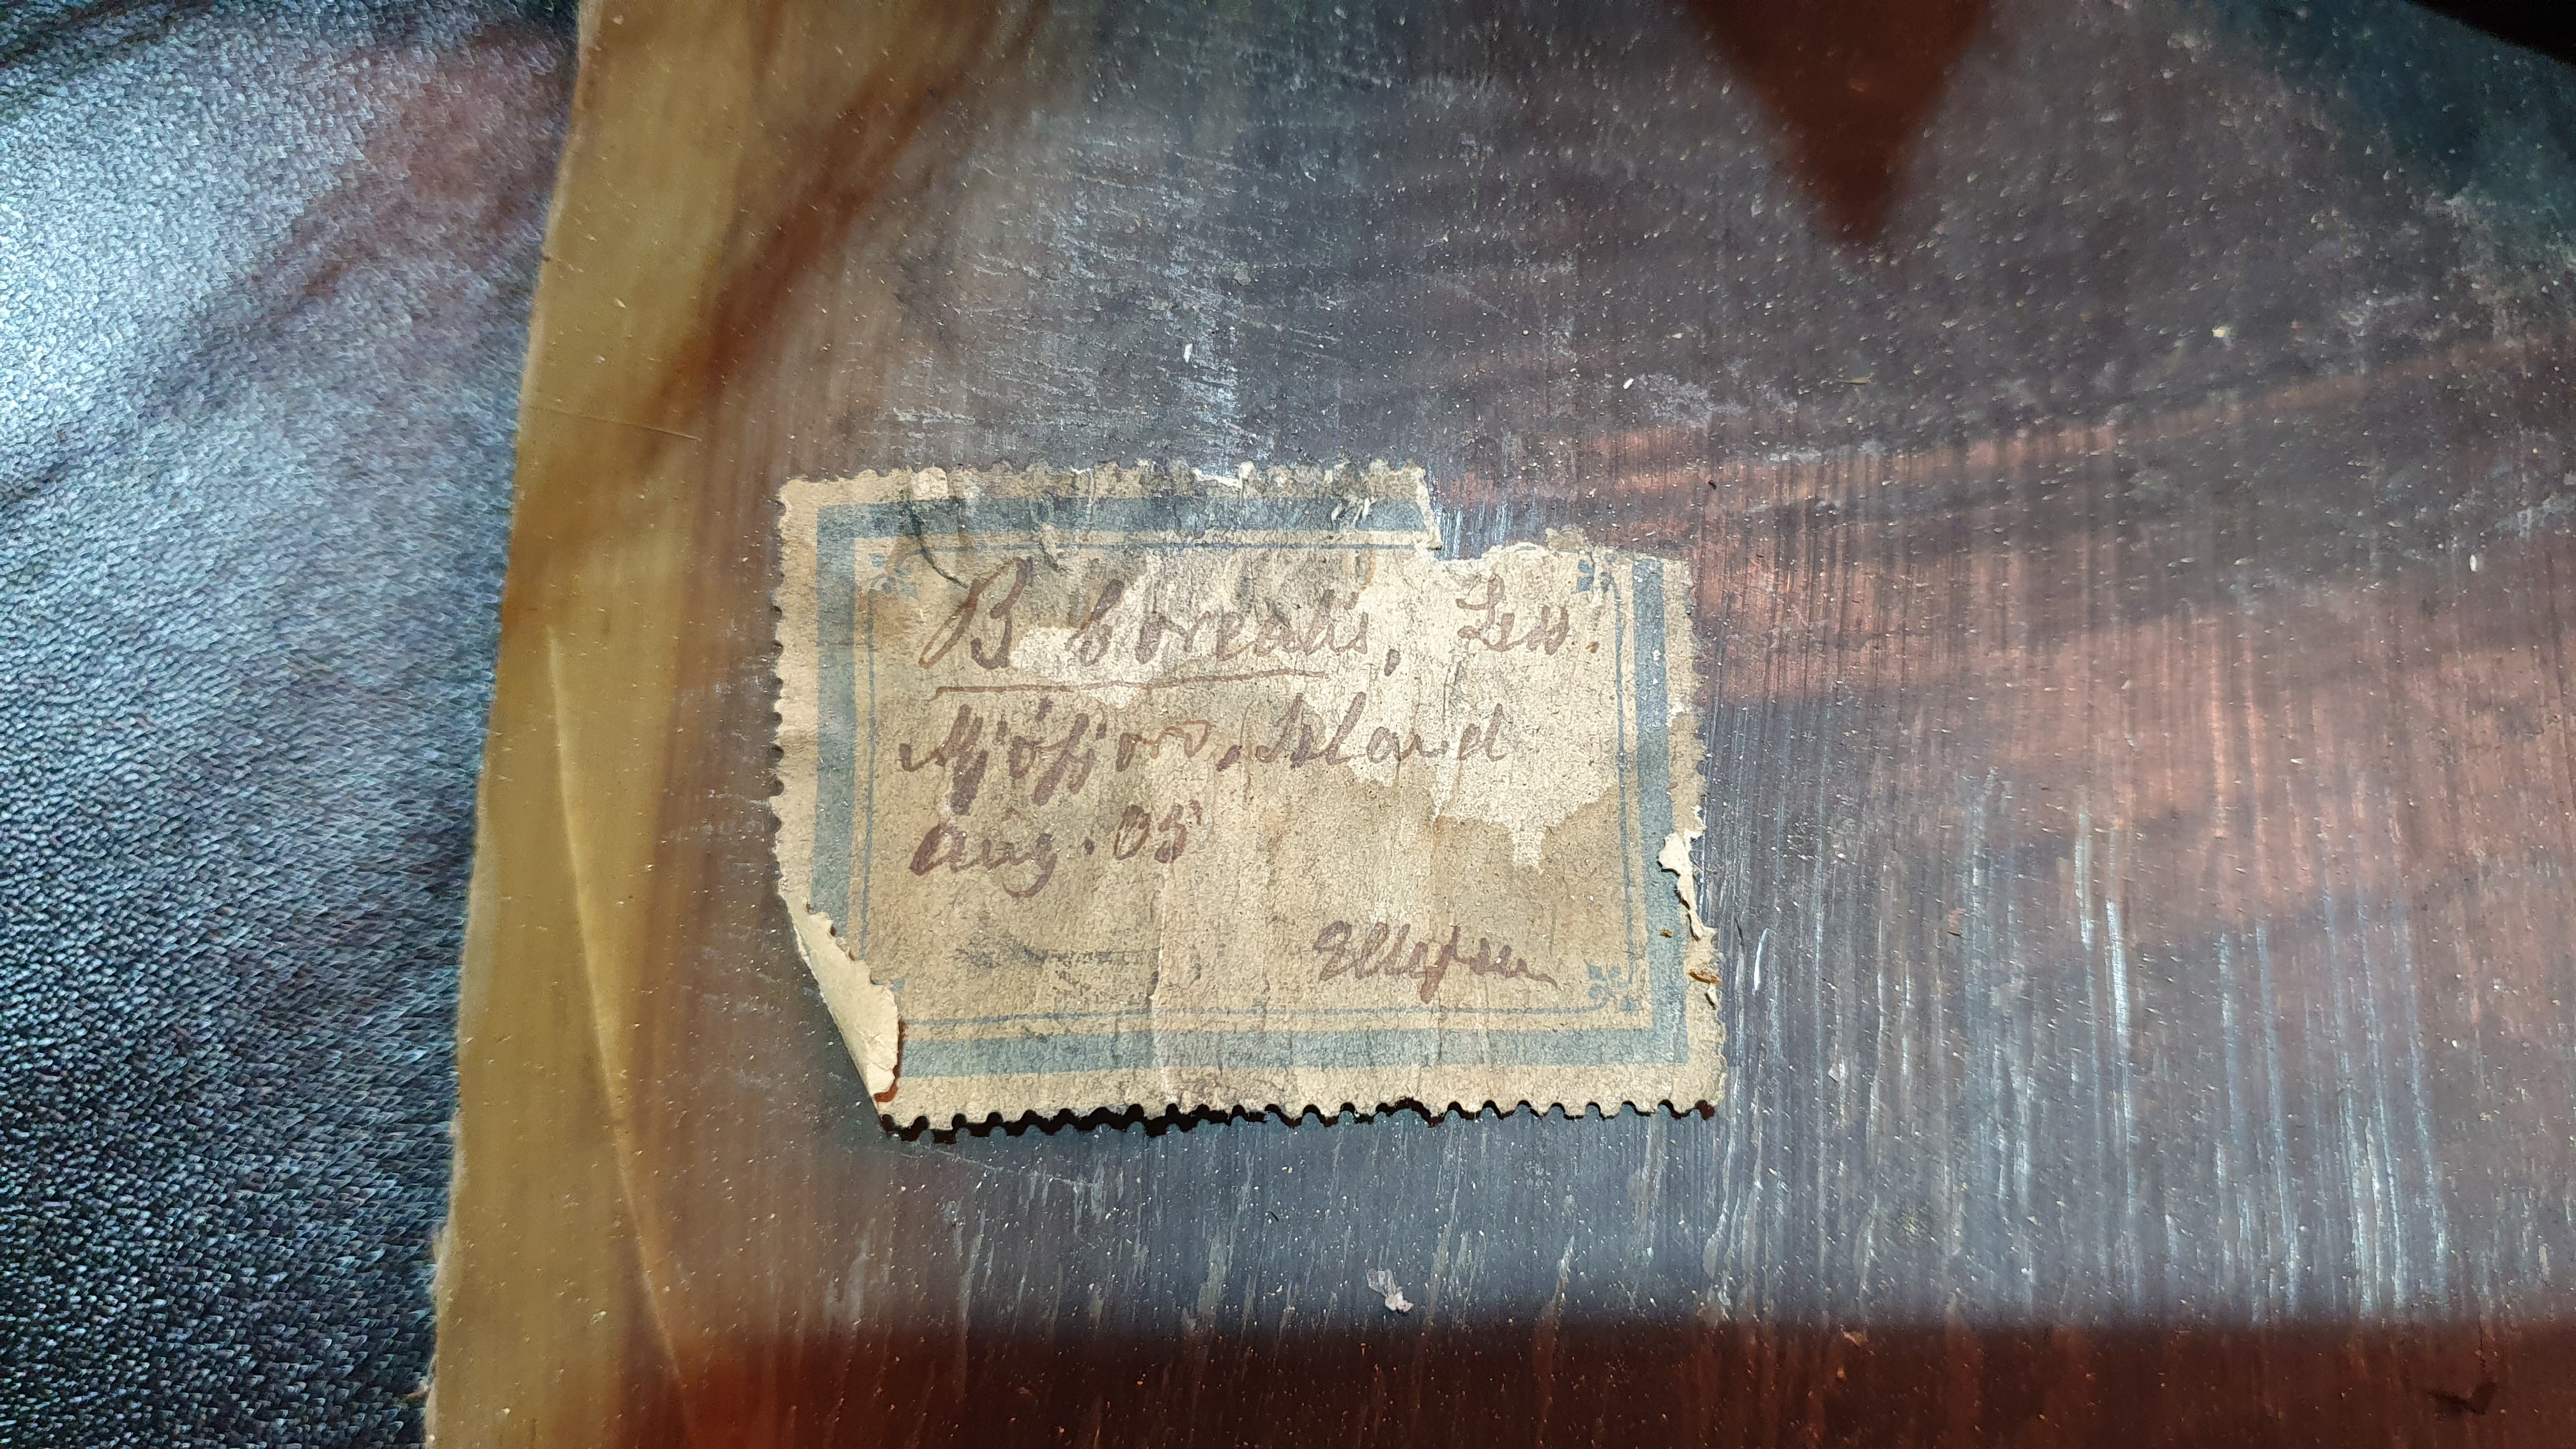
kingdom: Animalia
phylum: Chordata
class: Mammalia
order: Cetacea
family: Balaenopteridae
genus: Balaenoptera
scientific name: Balaenoptera borealis
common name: Sei whale
